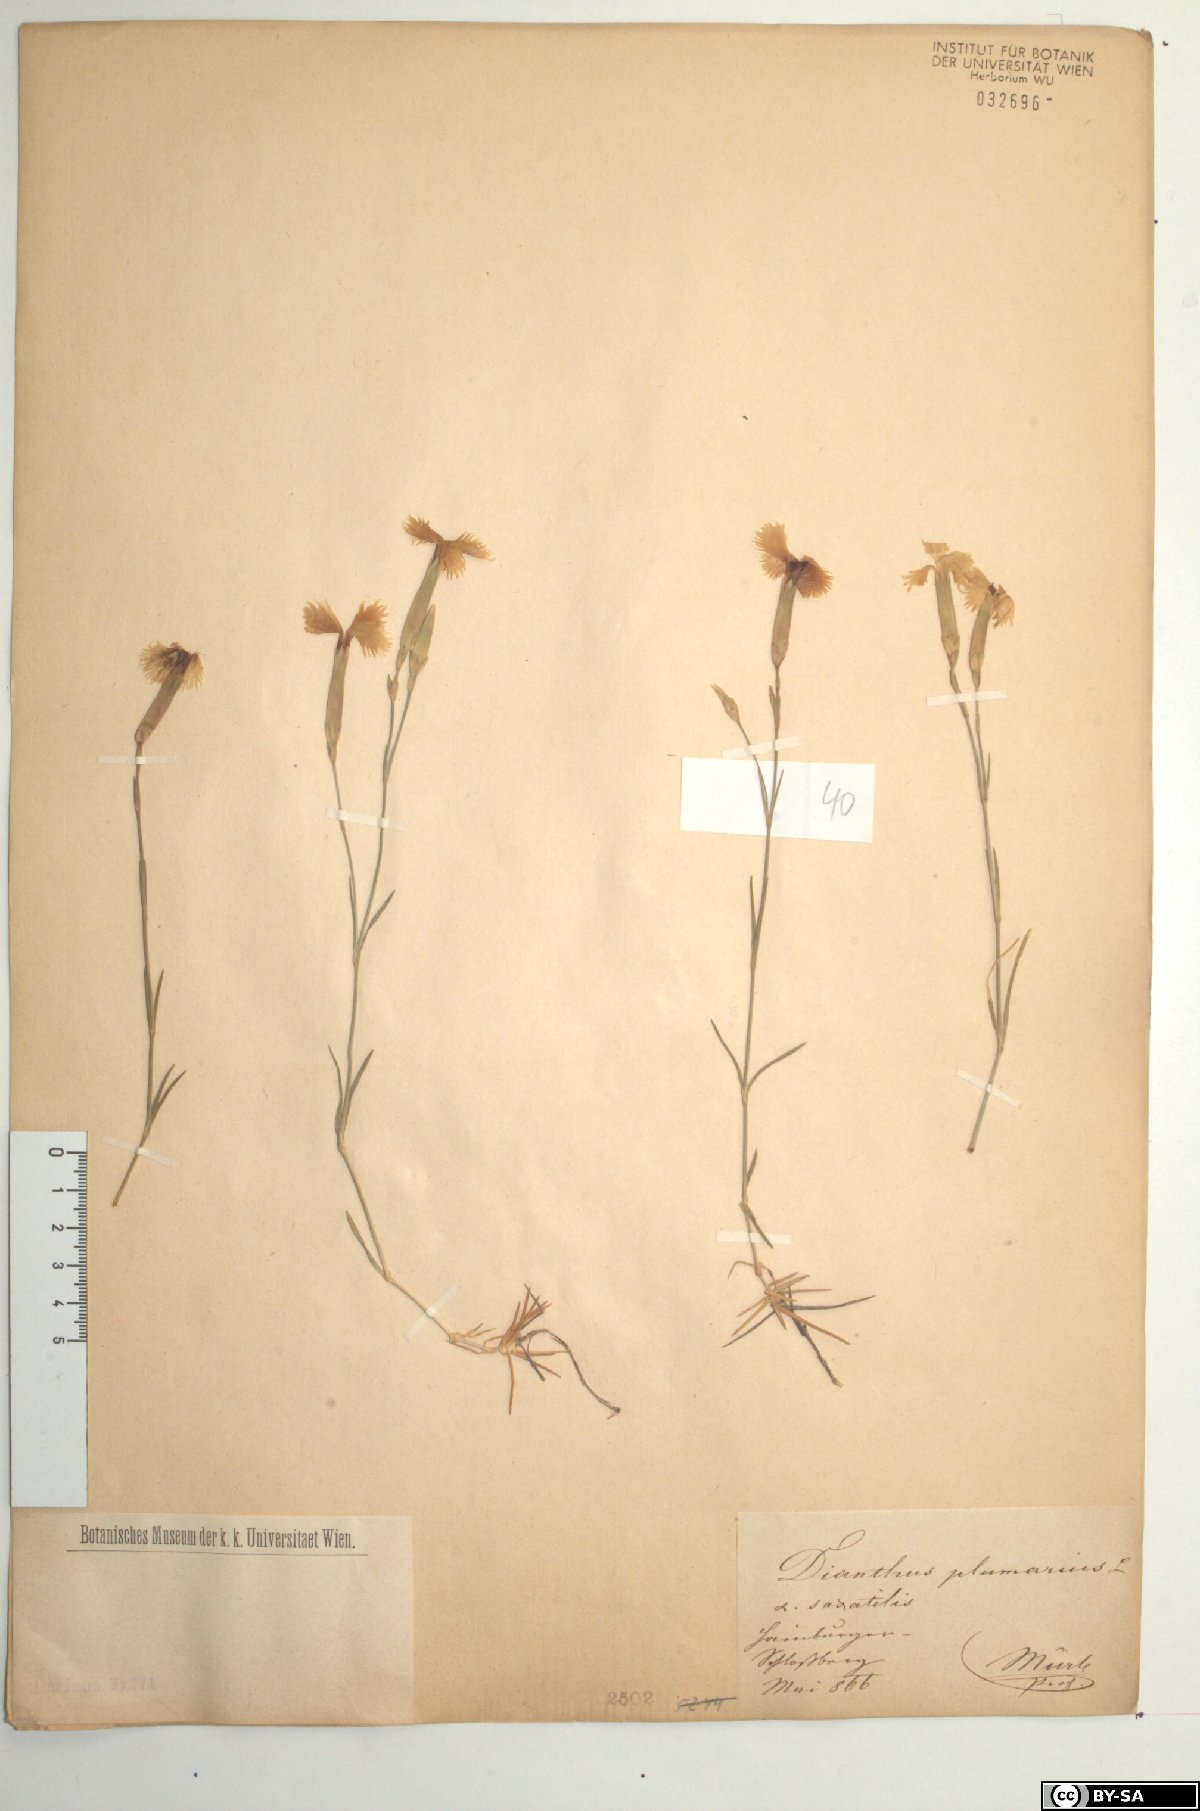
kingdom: Plantae
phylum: Tracheophyta
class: Magnoliopsida
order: Caryophyllales
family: Caryophyllaceae
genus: Dianthus
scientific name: Dianthus praecox
